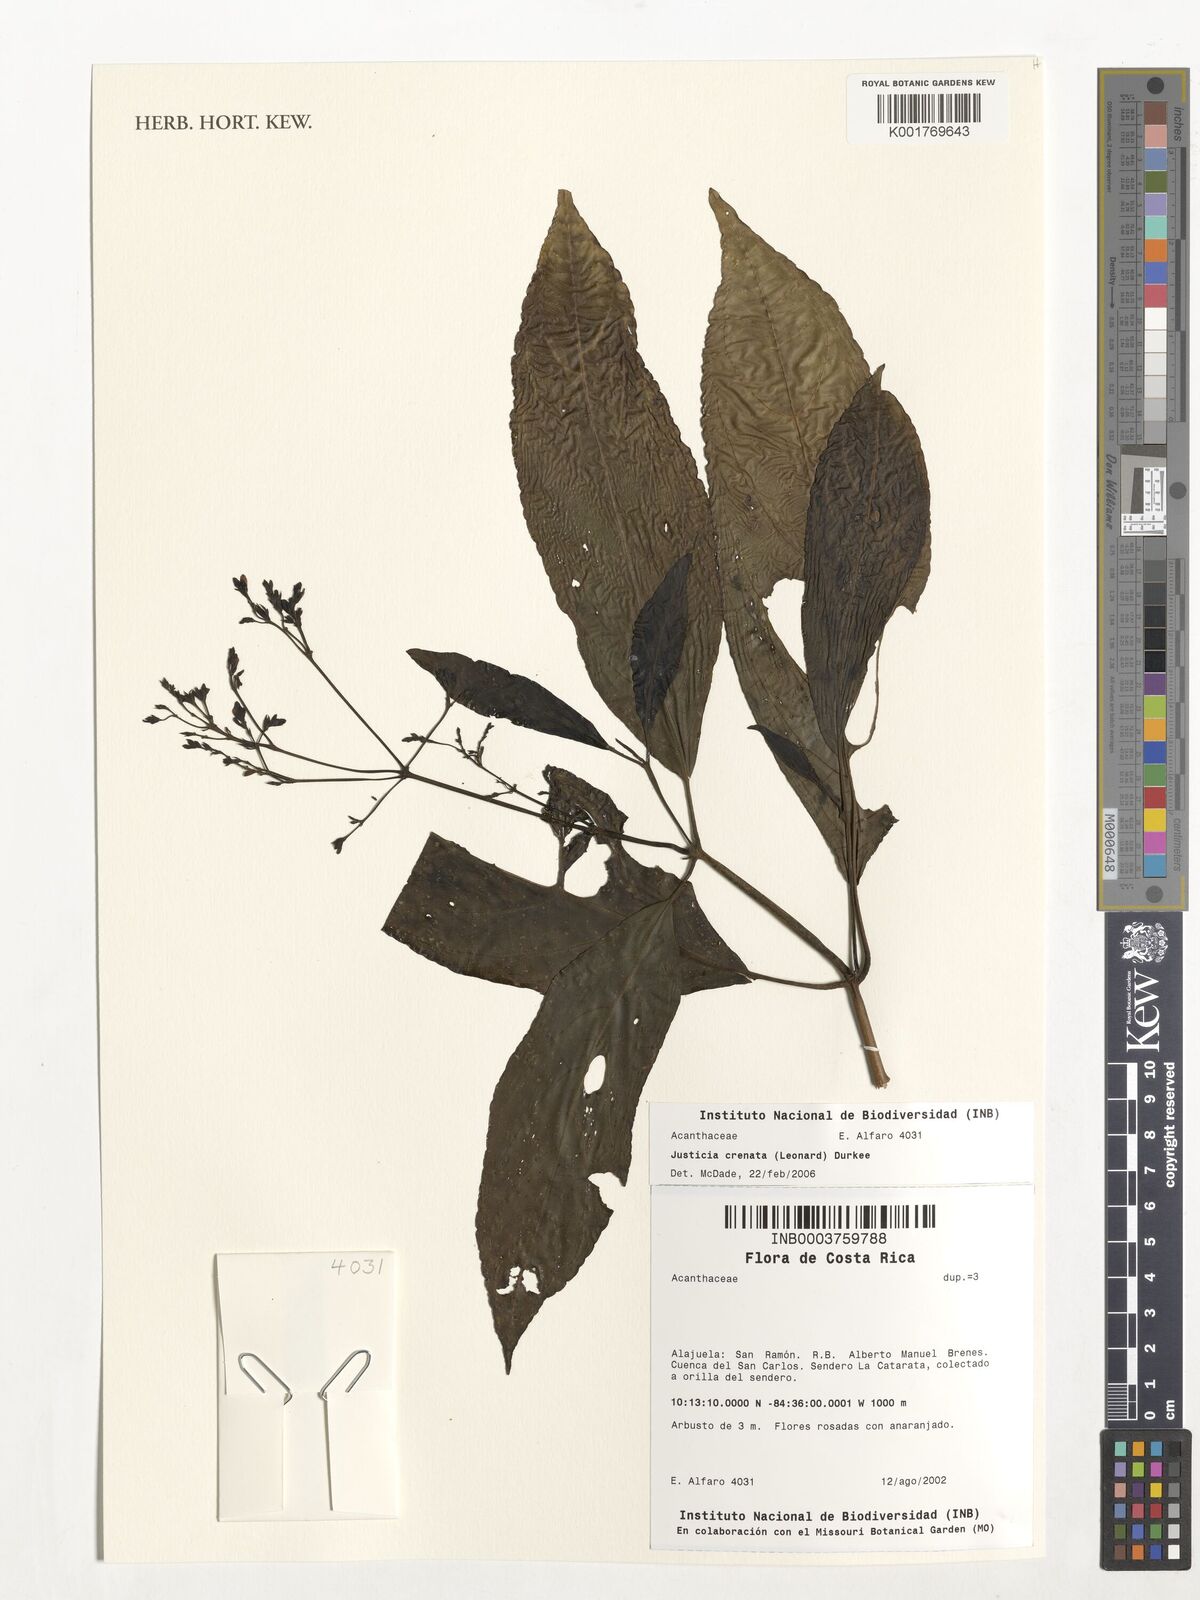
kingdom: Plantae
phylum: Tracheophyta
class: Magnoliopsida
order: Lamiales
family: Acanthaceae
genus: Justicia
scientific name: Justicia crenata
